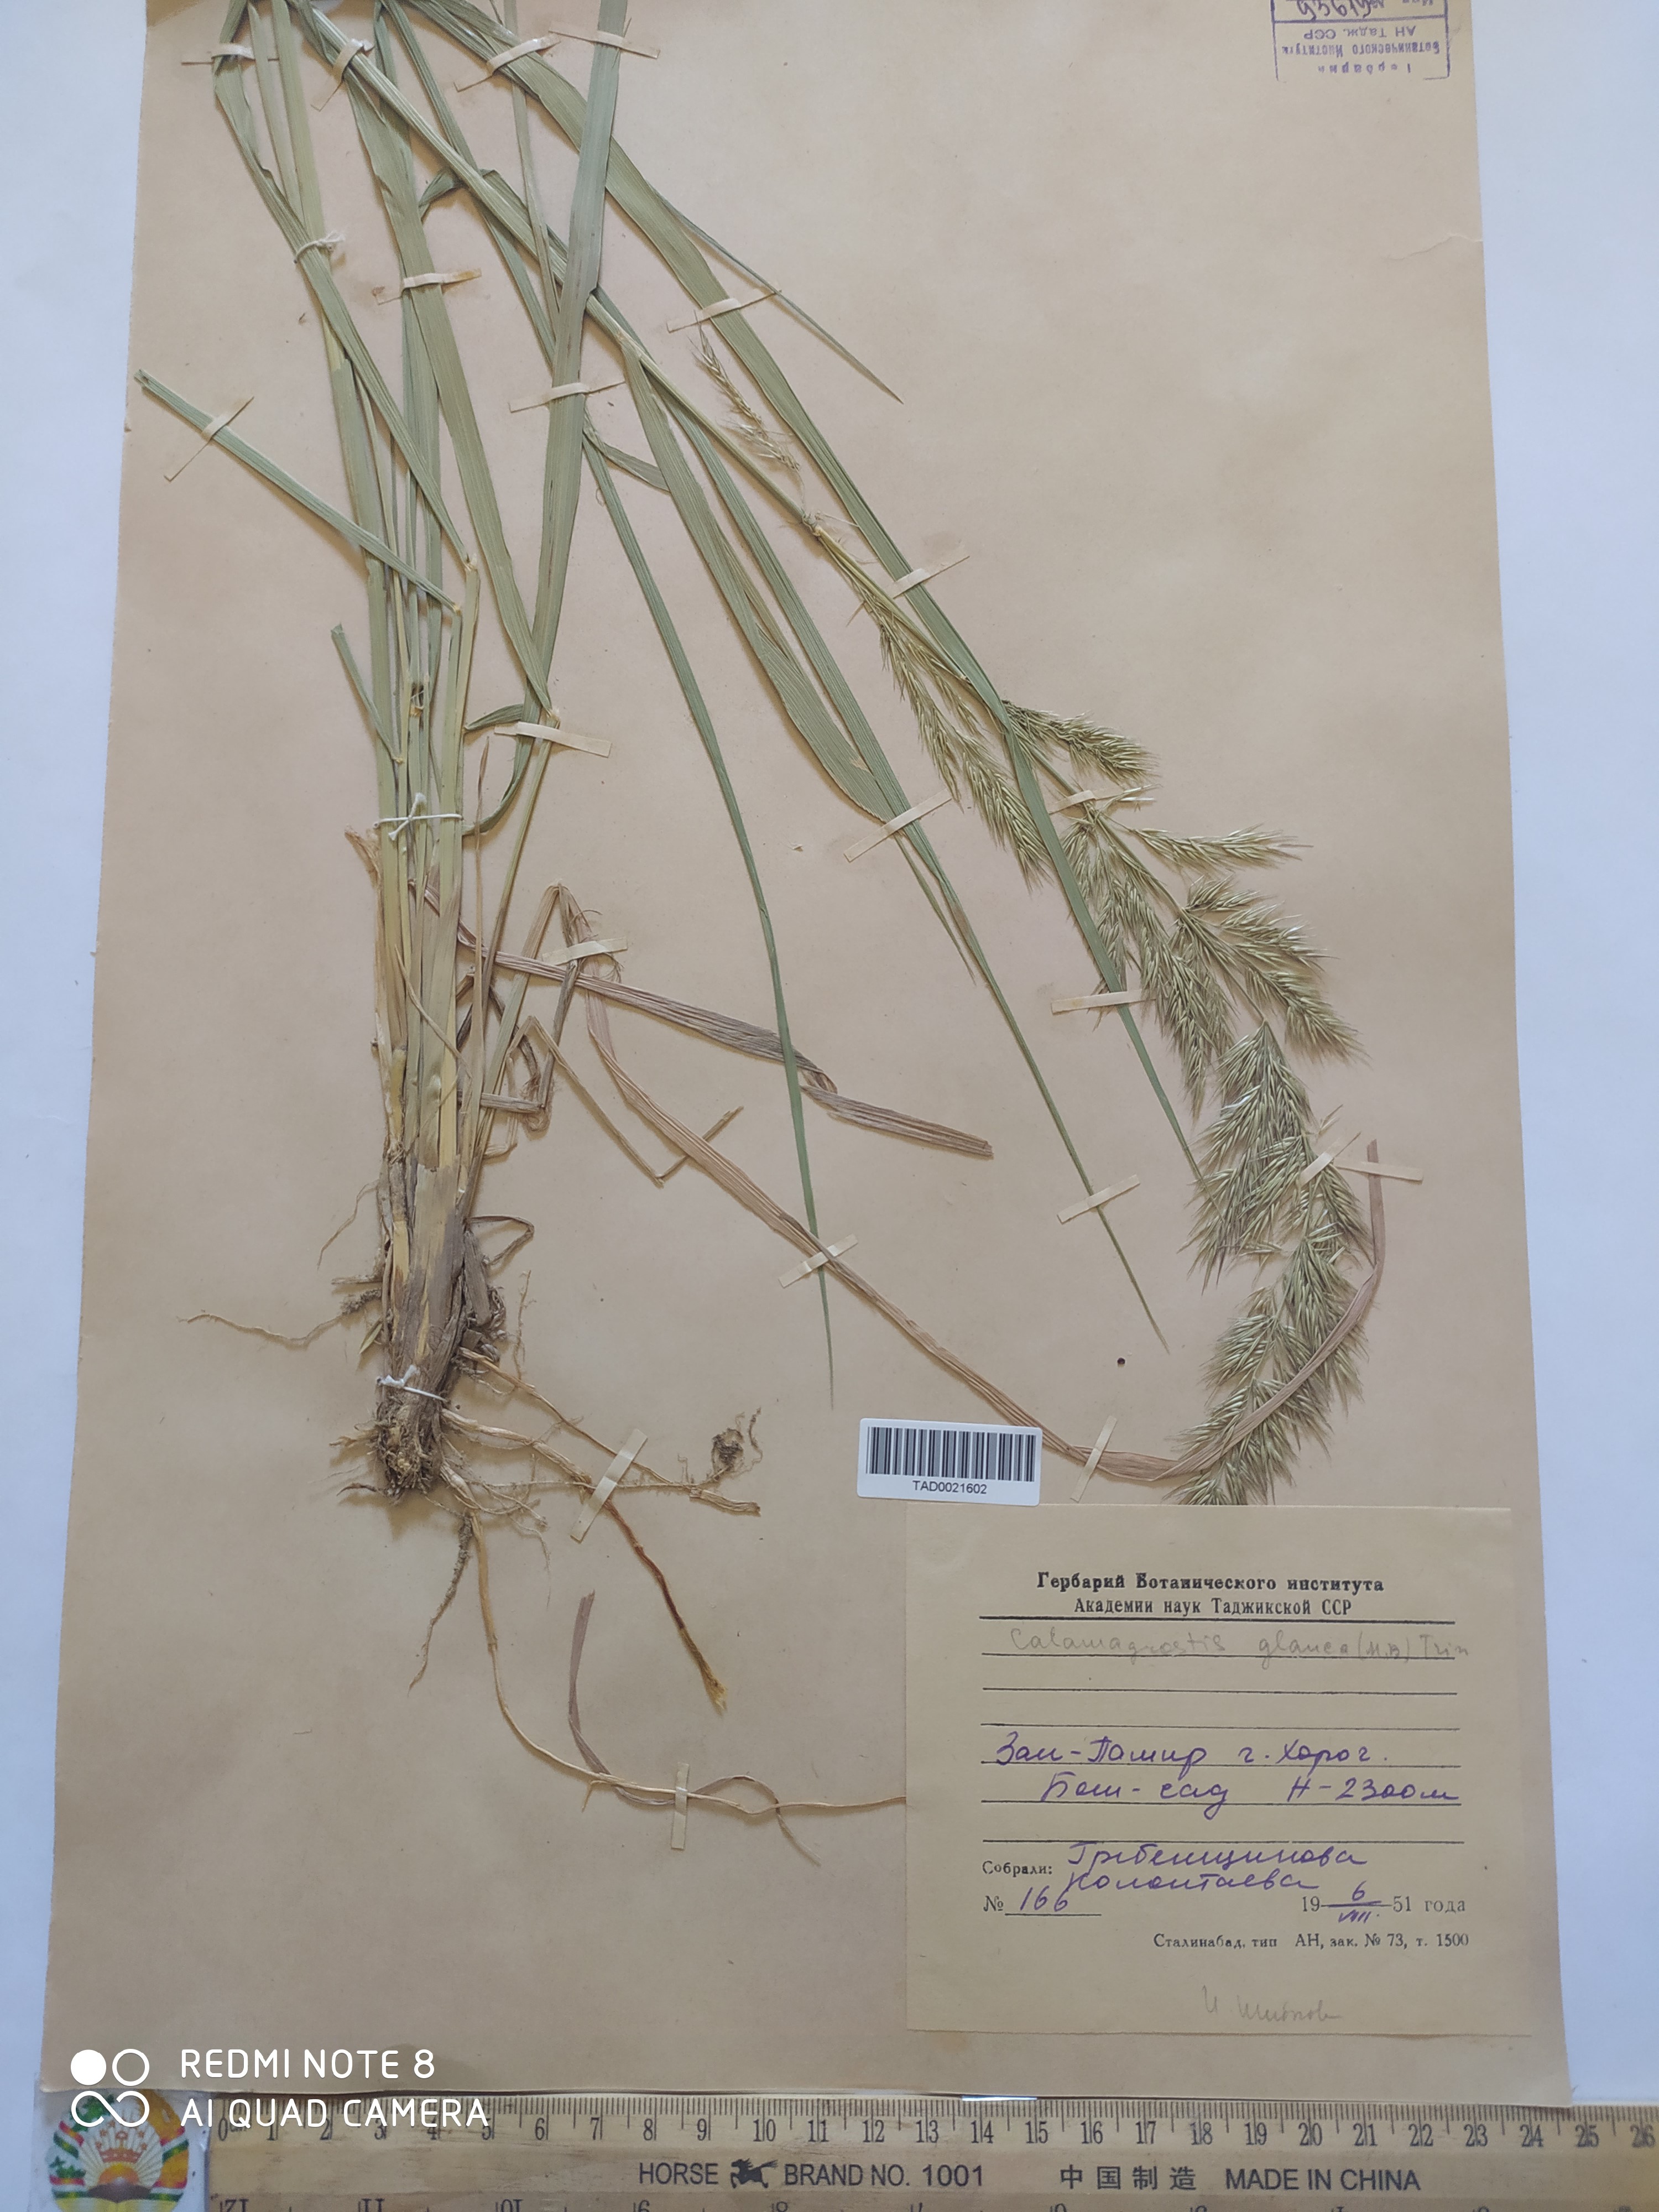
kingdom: Plantae
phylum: Tracheophyta
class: Liliopsida
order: Poales
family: Poaceae
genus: Calamagrostis
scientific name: Calamagrostis pseudophragmites
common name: Coastal small-reed
